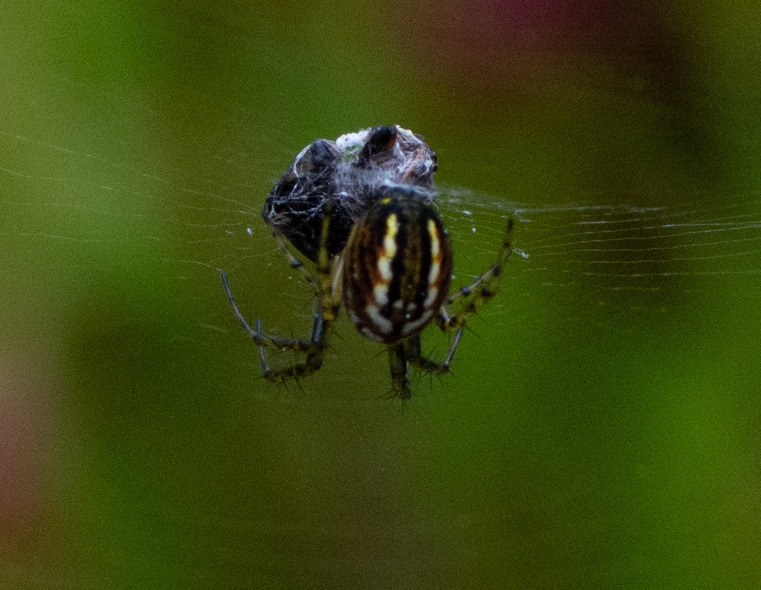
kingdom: Animalia
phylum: Arthropoda
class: Arachnida
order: Araneae
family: Araneidae
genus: Mangora
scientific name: Mangora acalypha
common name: Sortstribet hedehjulspinder
